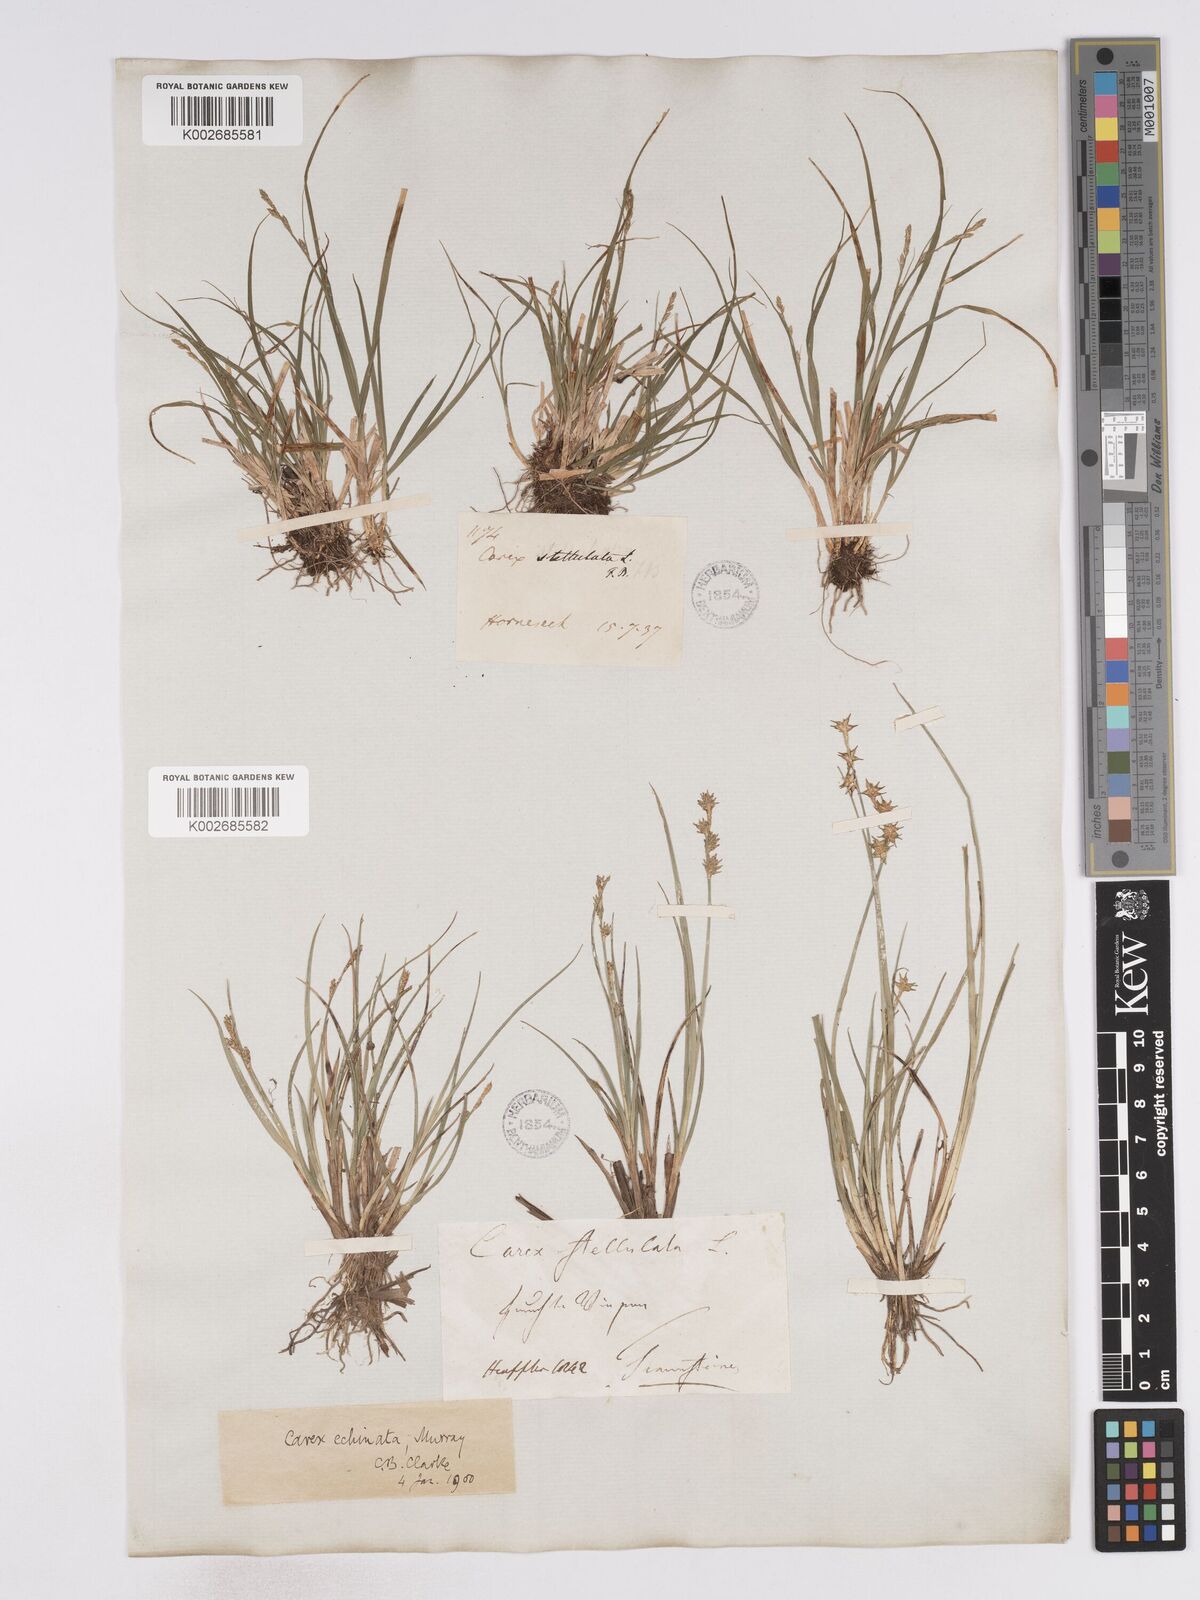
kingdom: Plantae
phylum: Tracheophyta
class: Liliopsida
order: Poales
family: Cyperaceae
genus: Carex
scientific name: Carex echinata
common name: Star sedge
